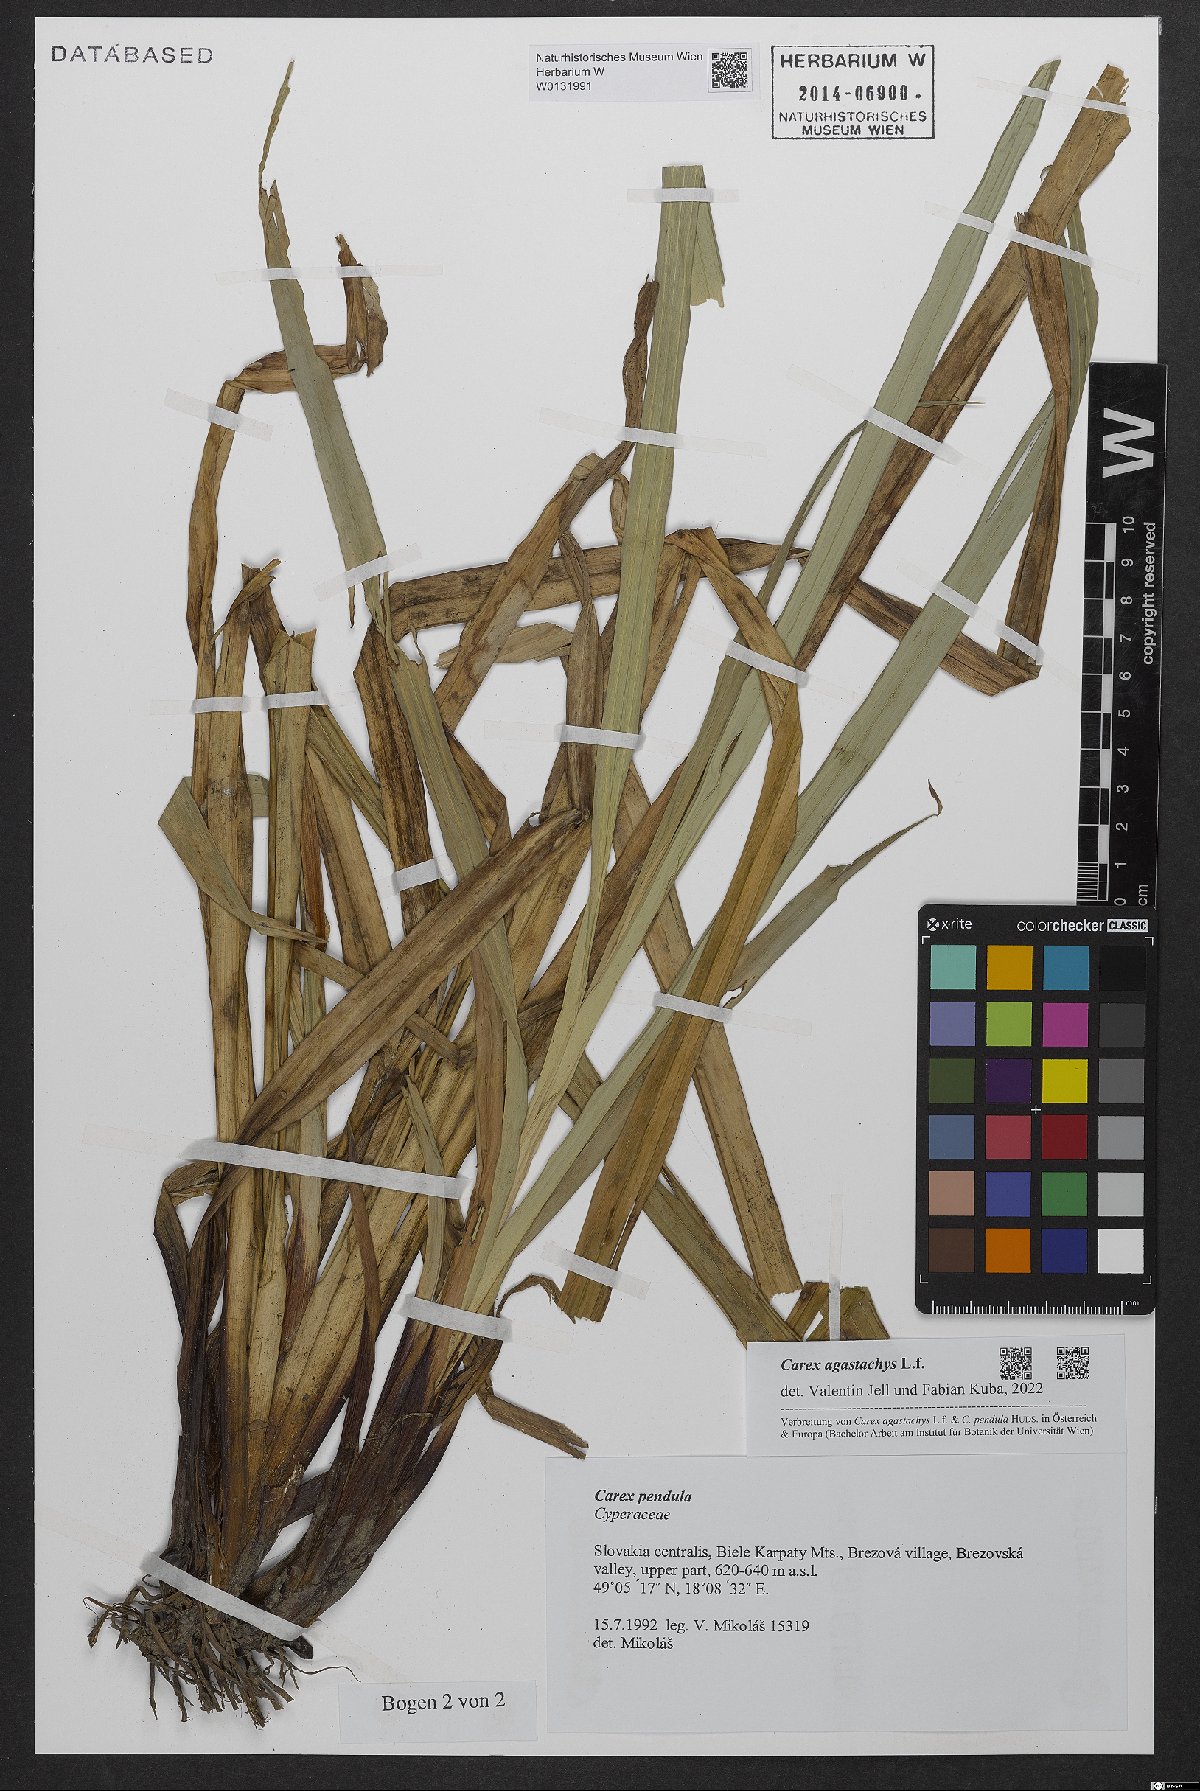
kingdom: Plantae
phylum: Tracheophyta
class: Liliopsida
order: Poales
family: Cyperaceae
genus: Carex
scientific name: Carex agastachys
